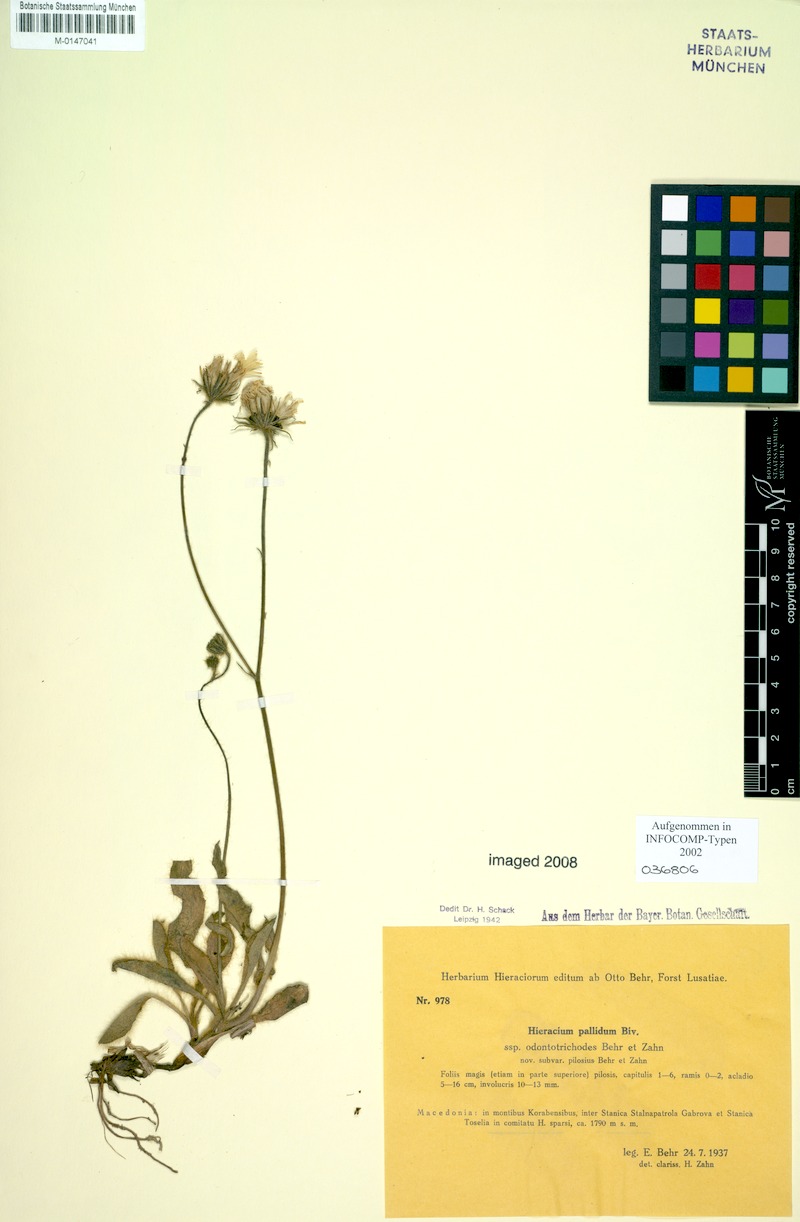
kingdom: Plantae
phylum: Tracheophyta
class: Magnoliopsida
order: Asterales
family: Asteraceae
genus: Hieracium
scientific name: Hieracium schmidtii
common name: Schmidt's hawkweed
